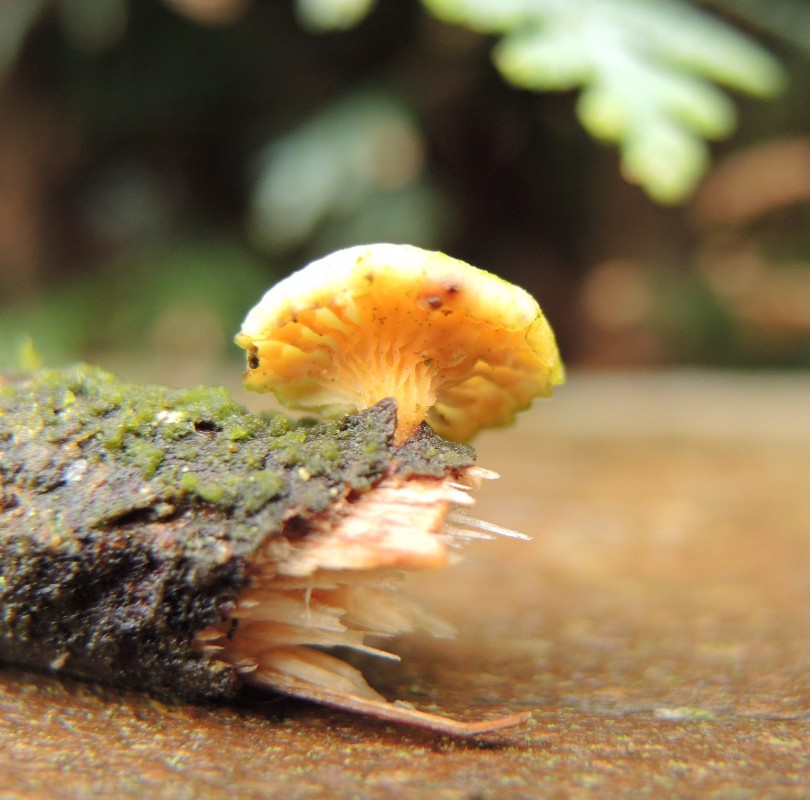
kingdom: Fungi
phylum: Basidiomycota
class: Agaricomycetes
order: Polyporales
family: Polyporaceae
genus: Neofavolus
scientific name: Neofavolus suavissimus
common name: anishat
